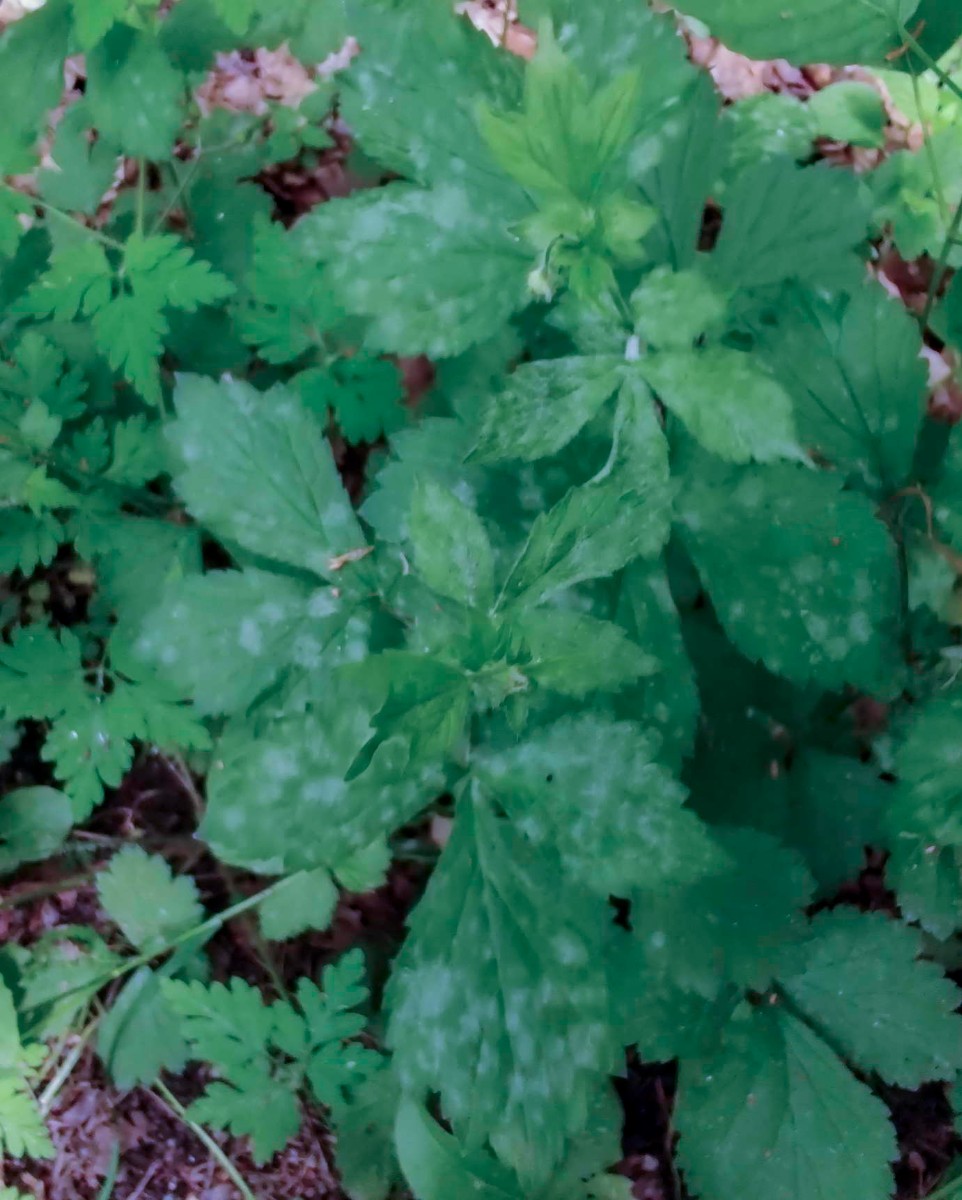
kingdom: Fungi
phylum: Ascomycota
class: Leotiomycetes
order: Helotiales
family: Erysiphaceae
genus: Podosphaera
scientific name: Podosphaera aphanis
